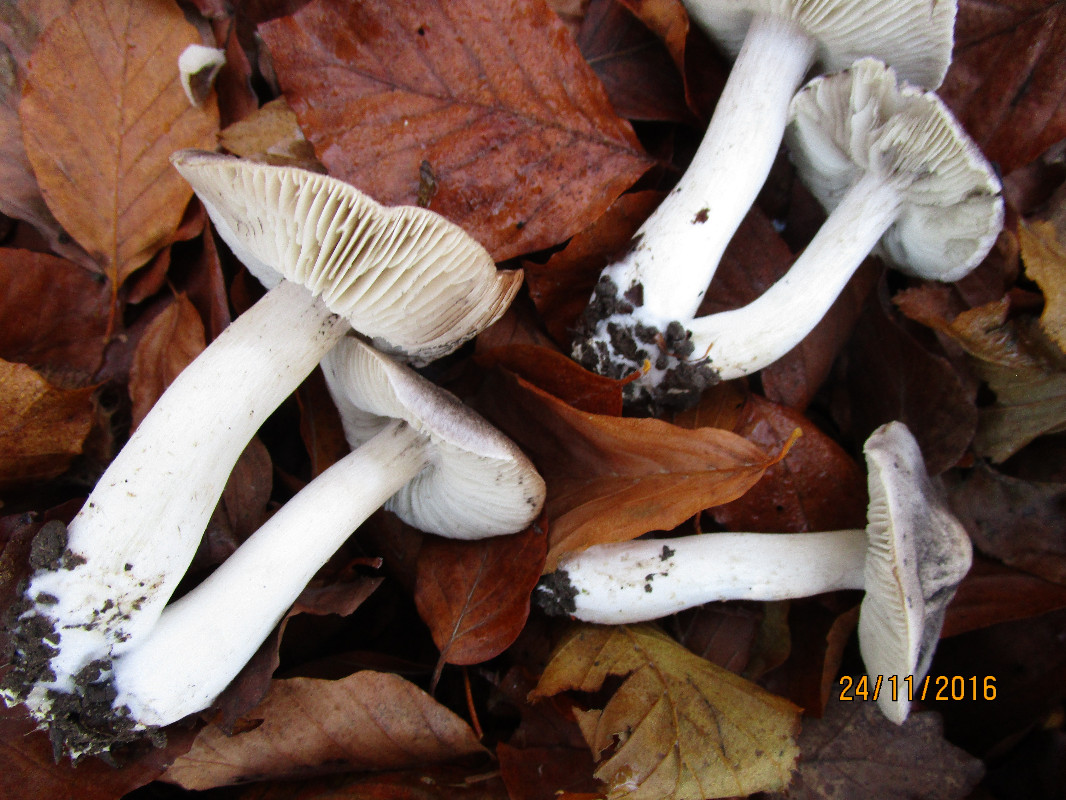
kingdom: Fungi
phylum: Basidiomycota
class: Agaricomycetes
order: Agaricales
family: Tricholomataceae
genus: Tricholoma
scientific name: Tricholoma orirubens
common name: rødbladet ridderhat
